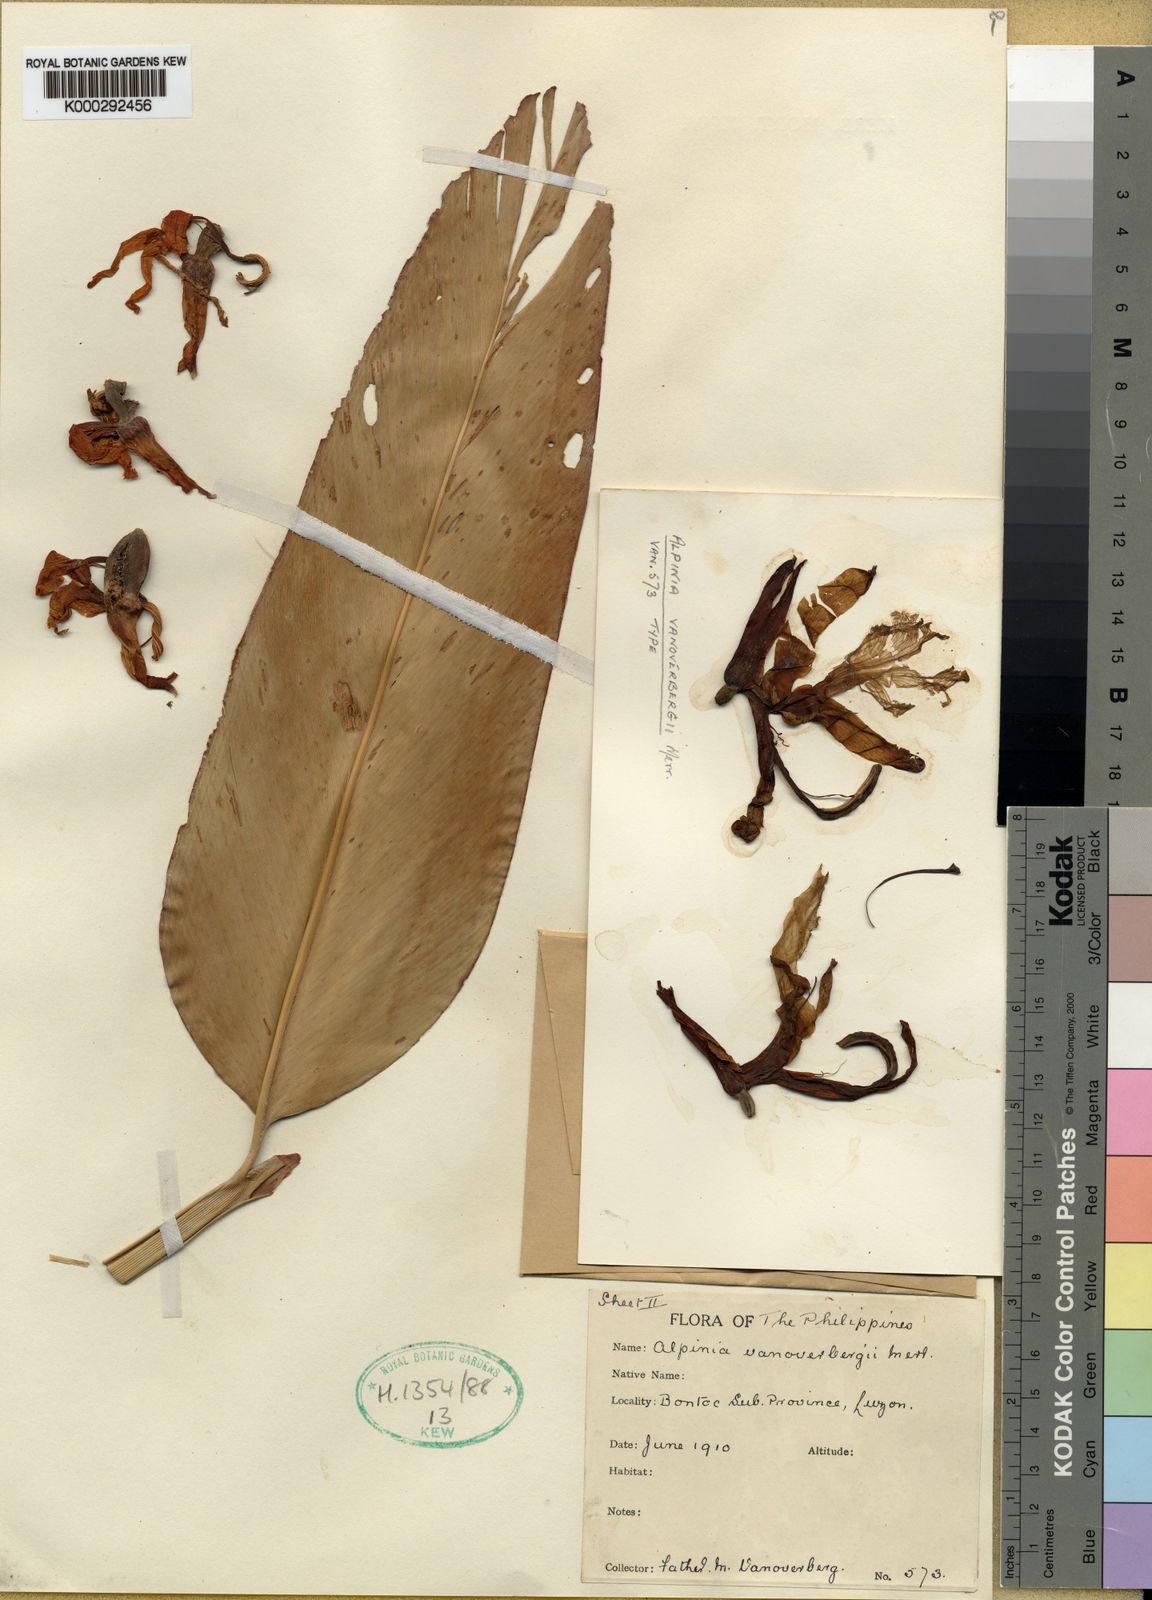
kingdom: Plantae
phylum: Tracheophyta
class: Liliopsida
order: Zingiberales
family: Zingiberaceae
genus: Vanoverberghia
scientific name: Vanoverberghia vanoverberghii
